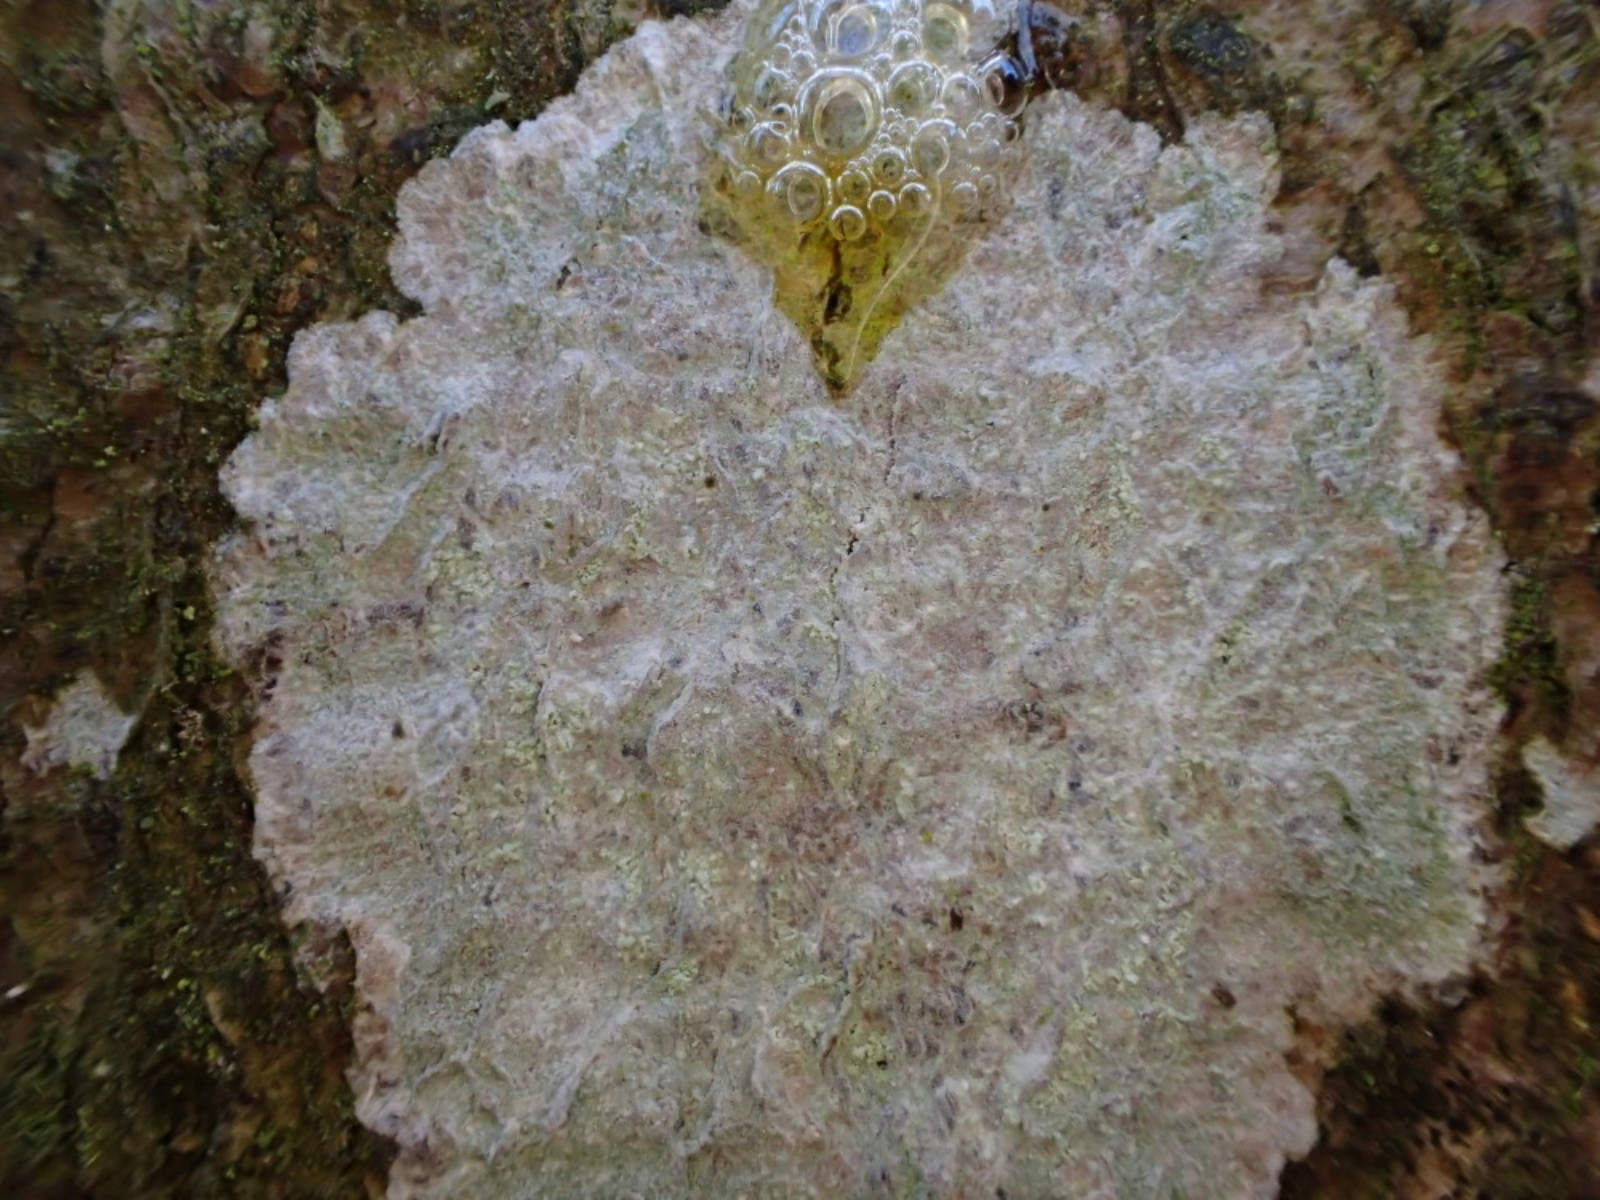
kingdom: Fungi
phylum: Ascomycota
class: Lecanoromycetes
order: Ostropales
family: Phlyctidaceae
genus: Phlyctis
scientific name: Phlyctis argena
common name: almindelig sølvlav
